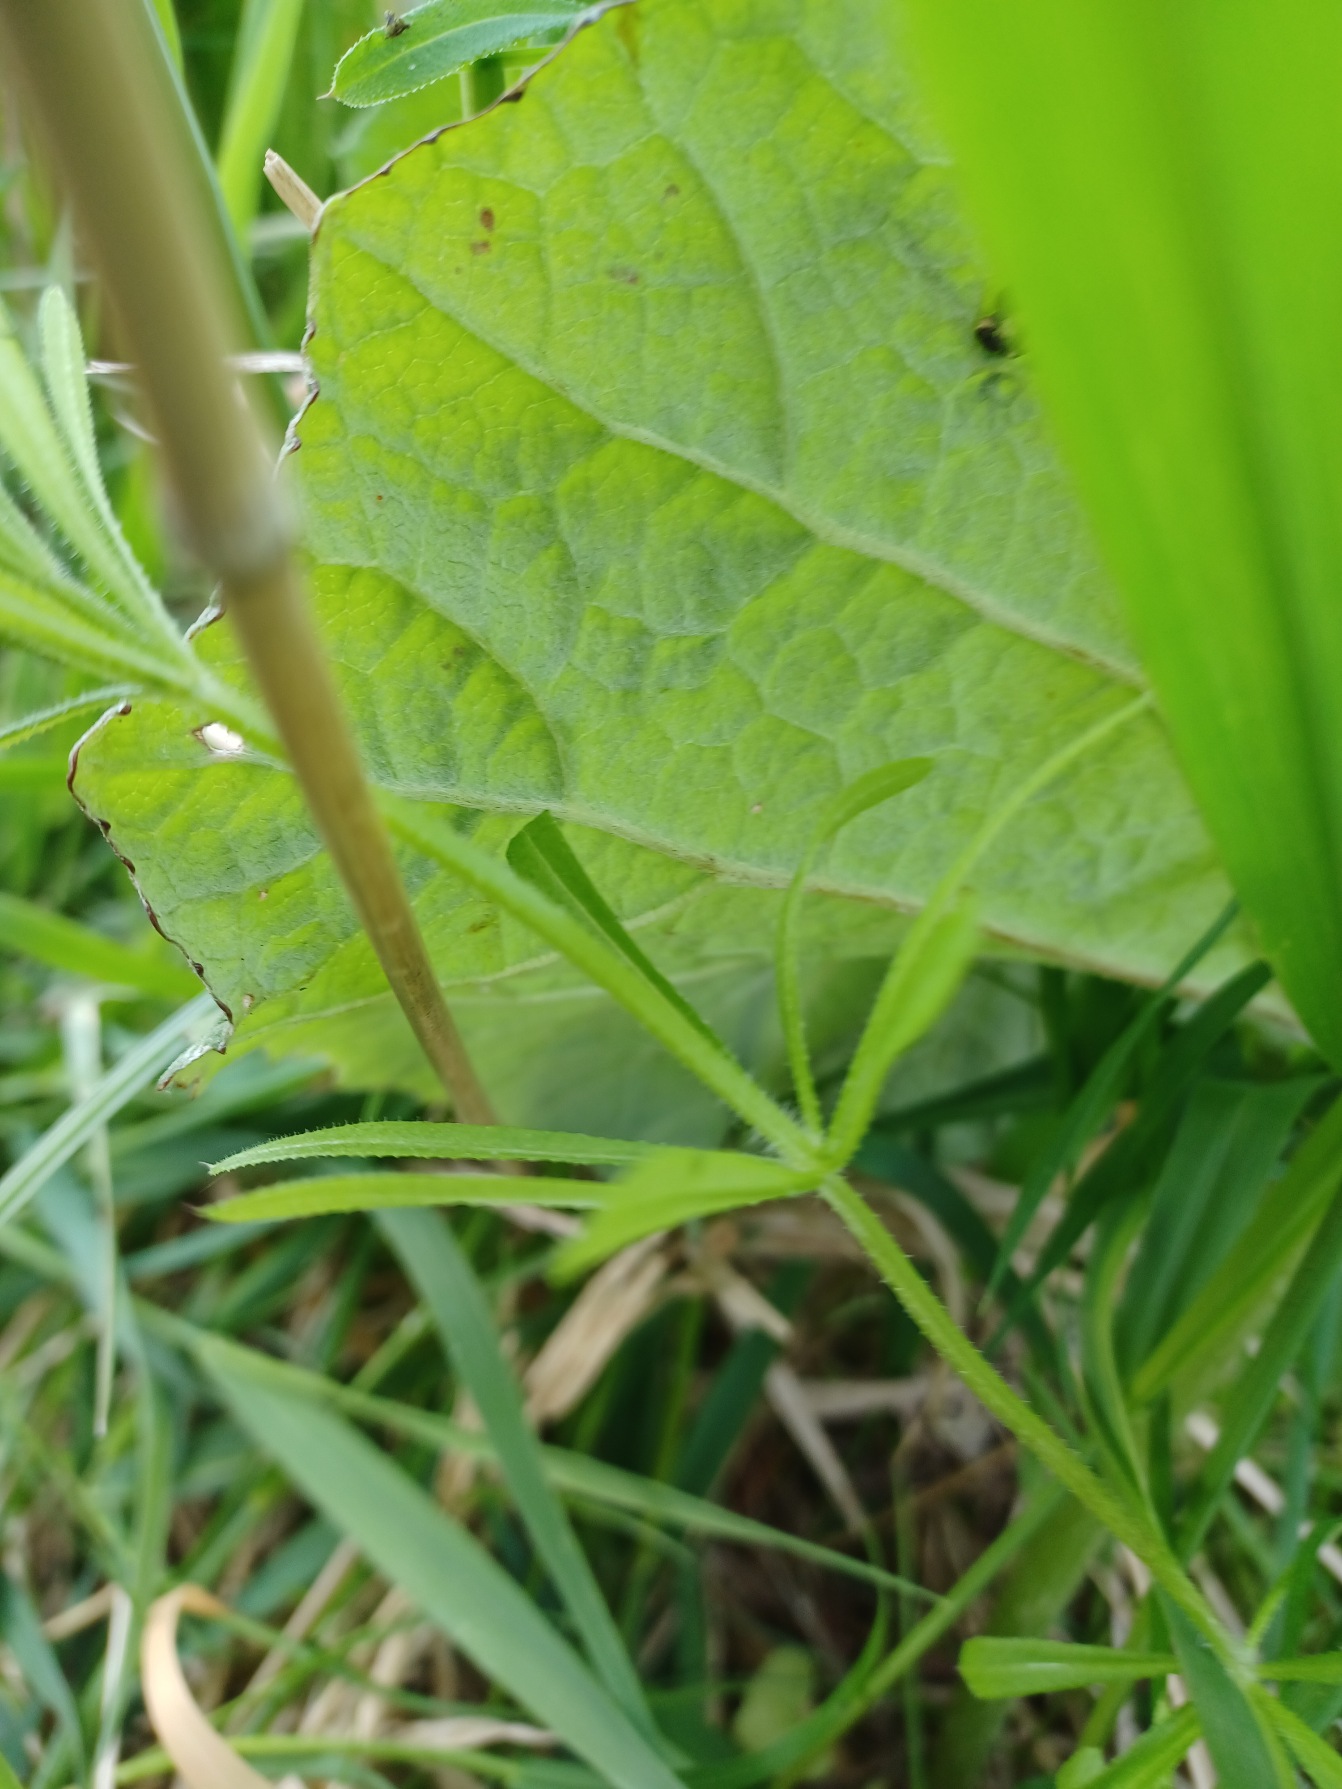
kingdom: Plantae
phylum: Tracheophyta
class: Magnoliopsida
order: Gentianales
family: Rubiaceae
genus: Galium
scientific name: Galium aparine
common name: Burre-snerre
